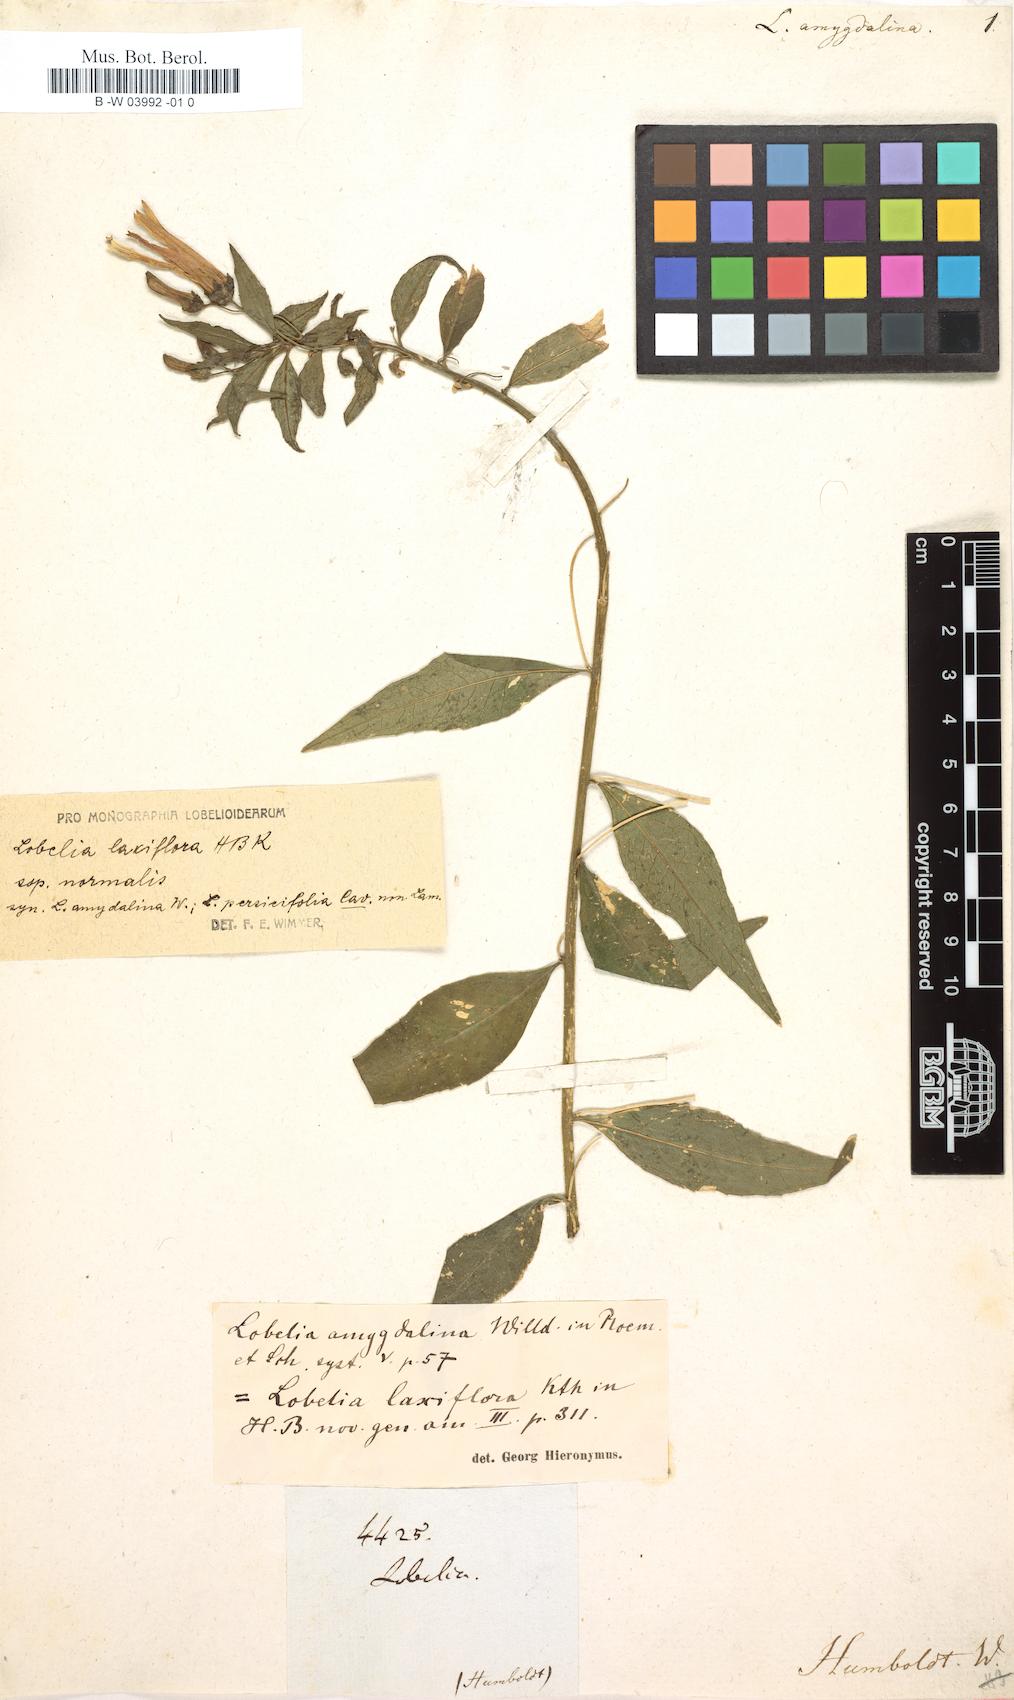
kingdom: Plantae
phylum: Tracheophyta
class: Magnoliopsida
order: Asterales
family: Campanulaceae
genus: Lobelia
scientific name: Lobelia laxiflora
